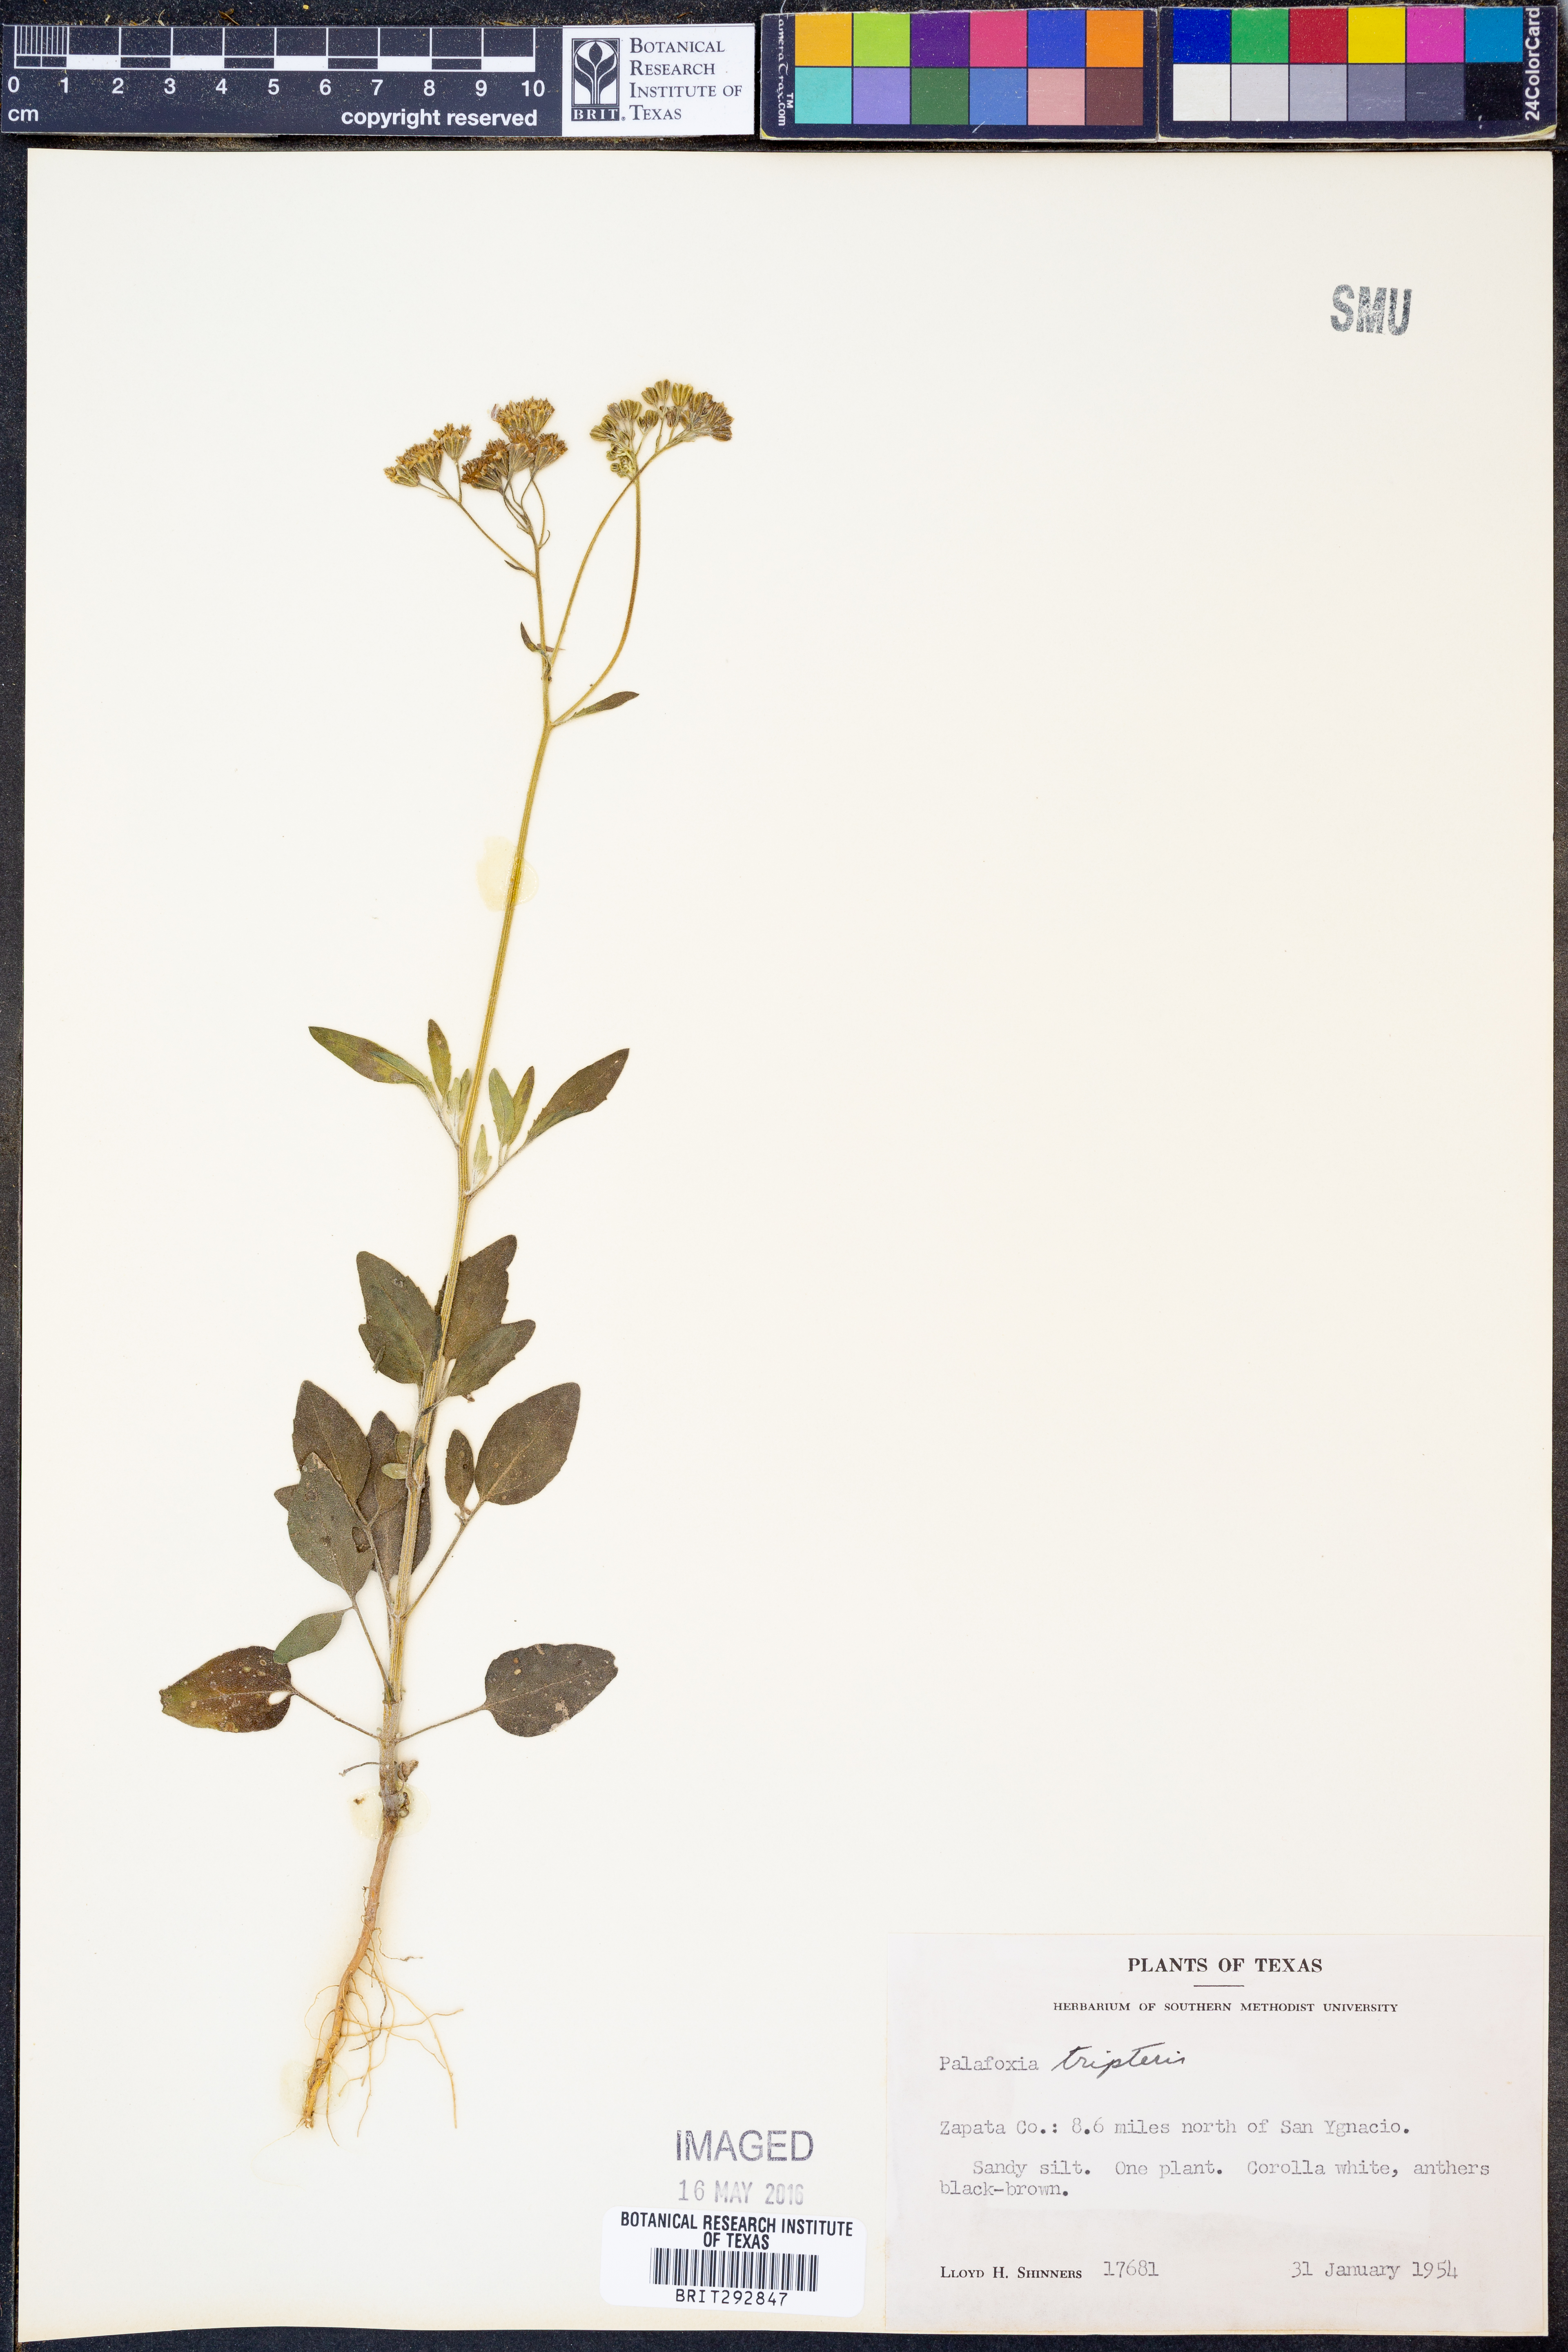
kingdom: Plantae
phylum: Tracheophyta
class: Magnoliopsida
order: Asterales
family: Asteraceae
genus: Florestina
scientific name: Florestina tripteris
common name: Sticky florestina
